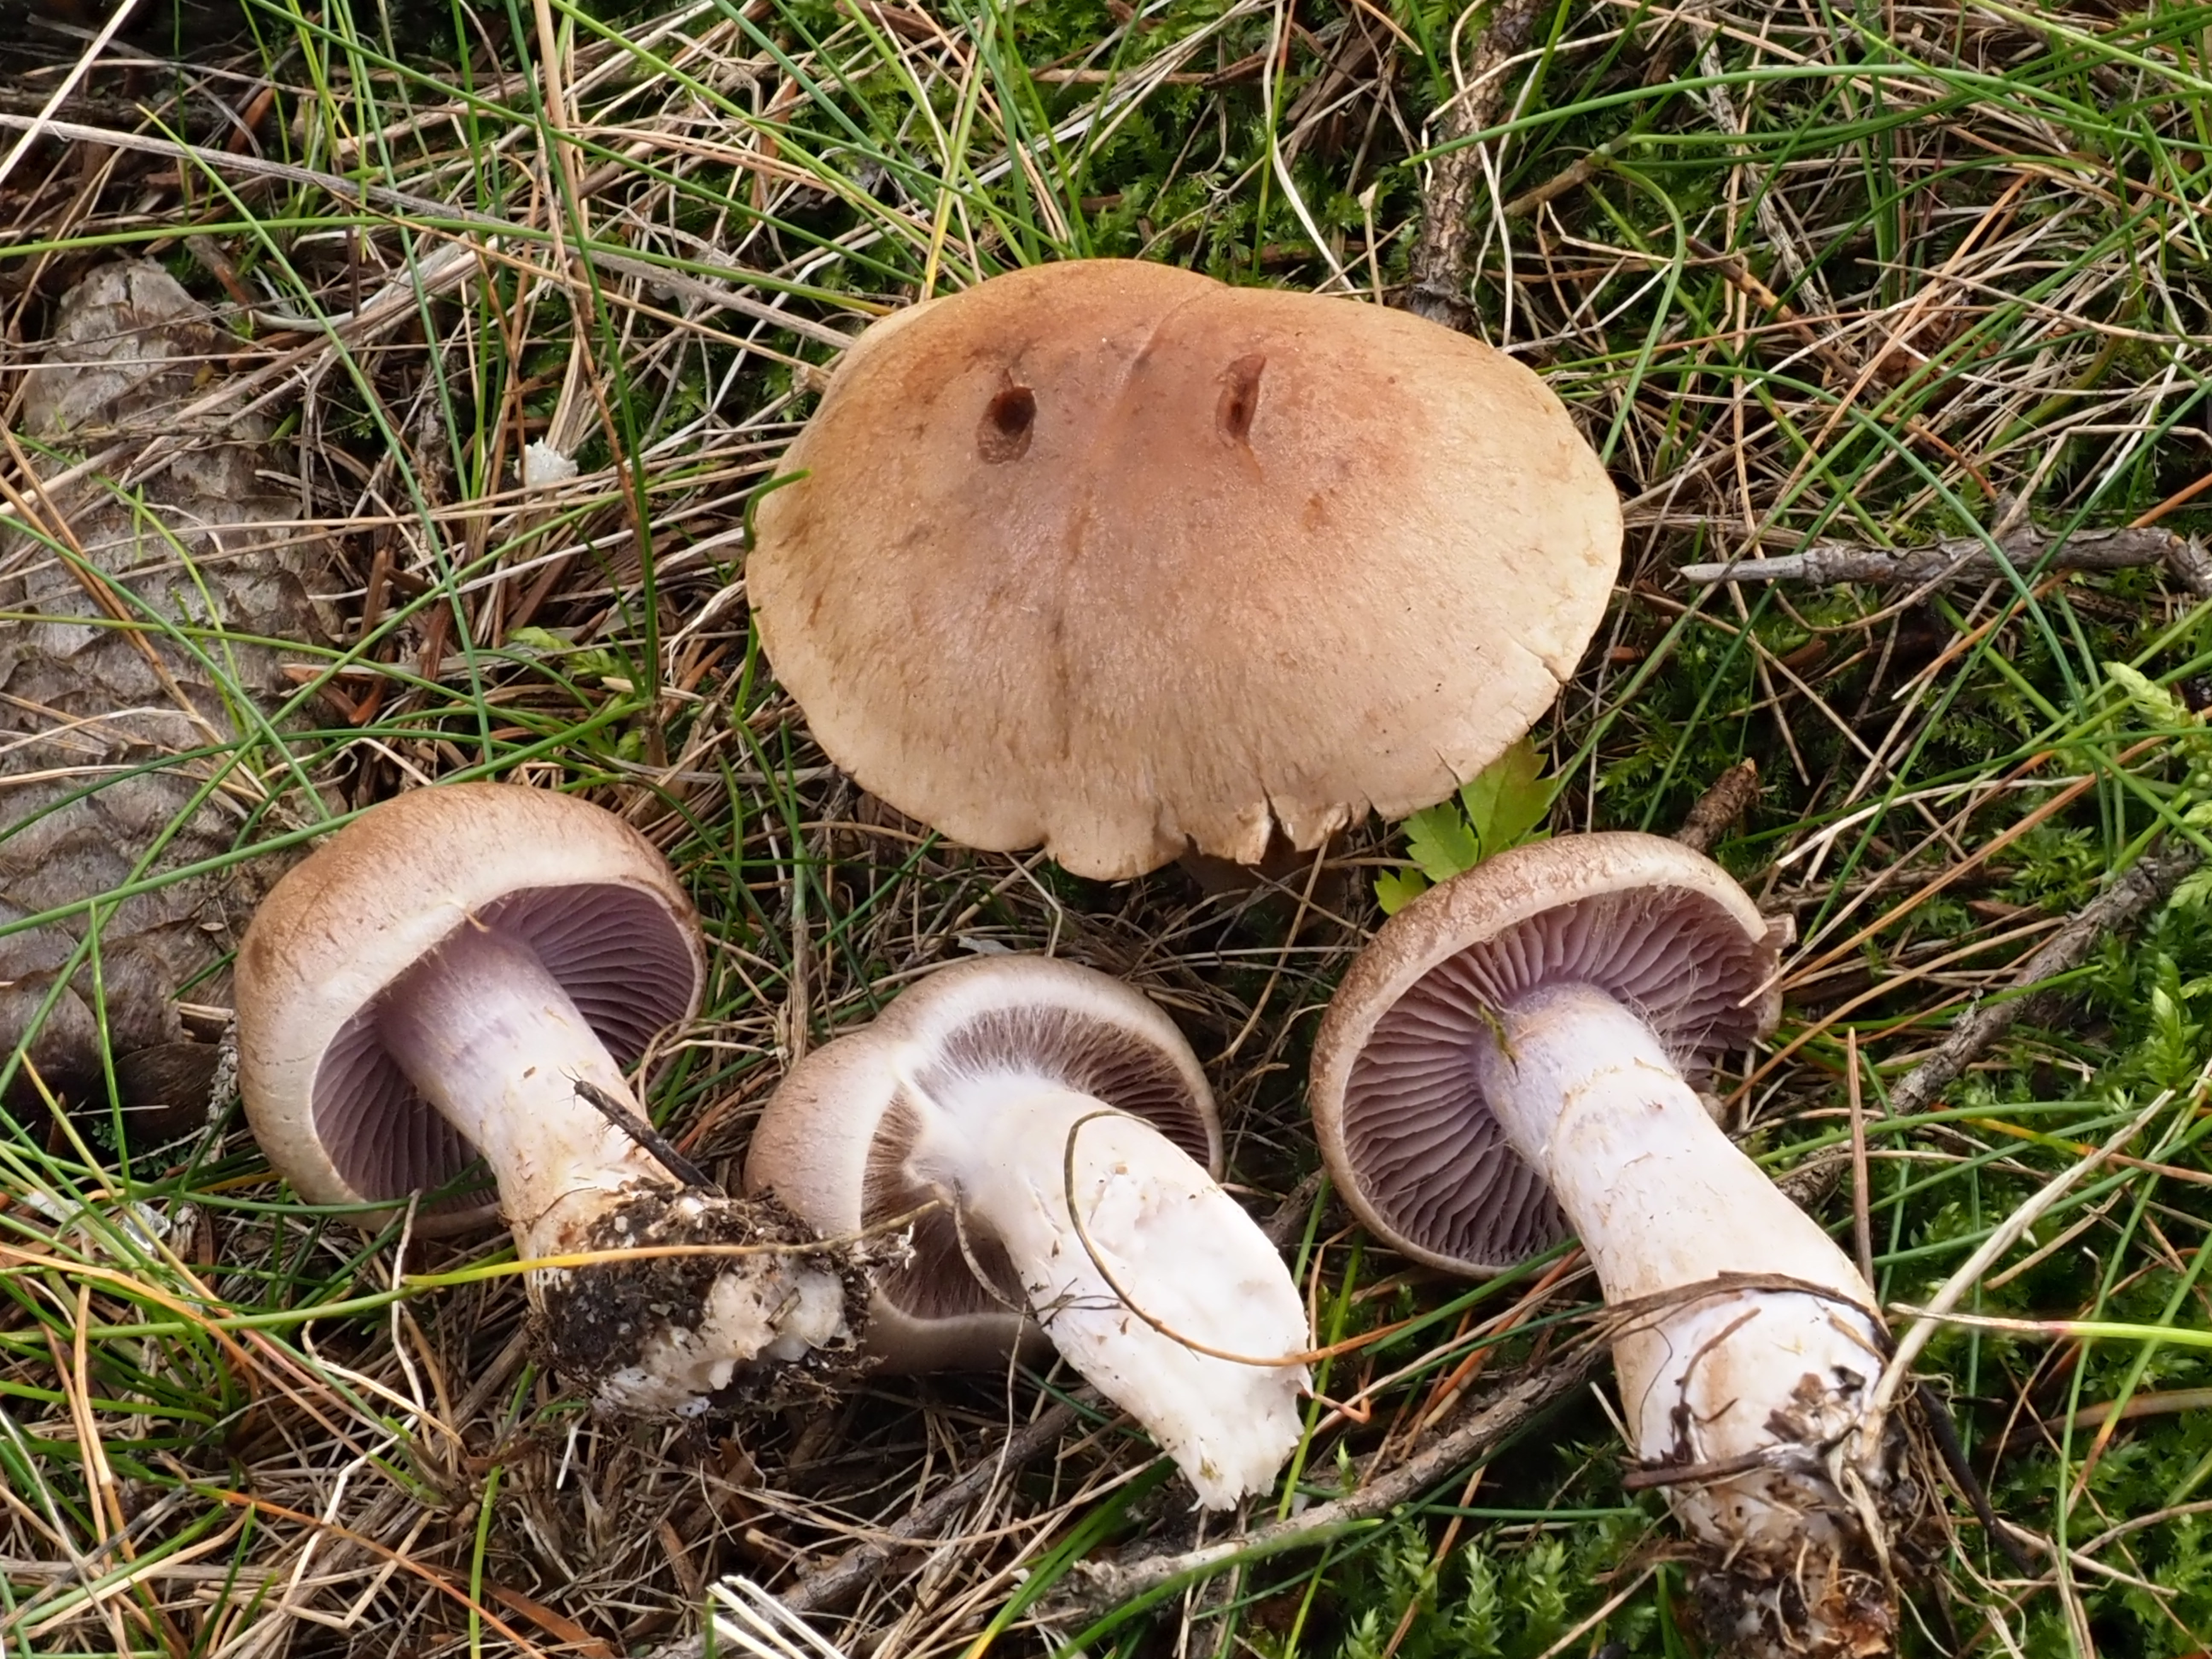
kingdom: Fungi
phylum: Basidiomycota
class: Agaricomycetes
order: Agaricales
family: Cortinariaceae
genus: Cortinarius
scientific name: Cortinarius lucorum
